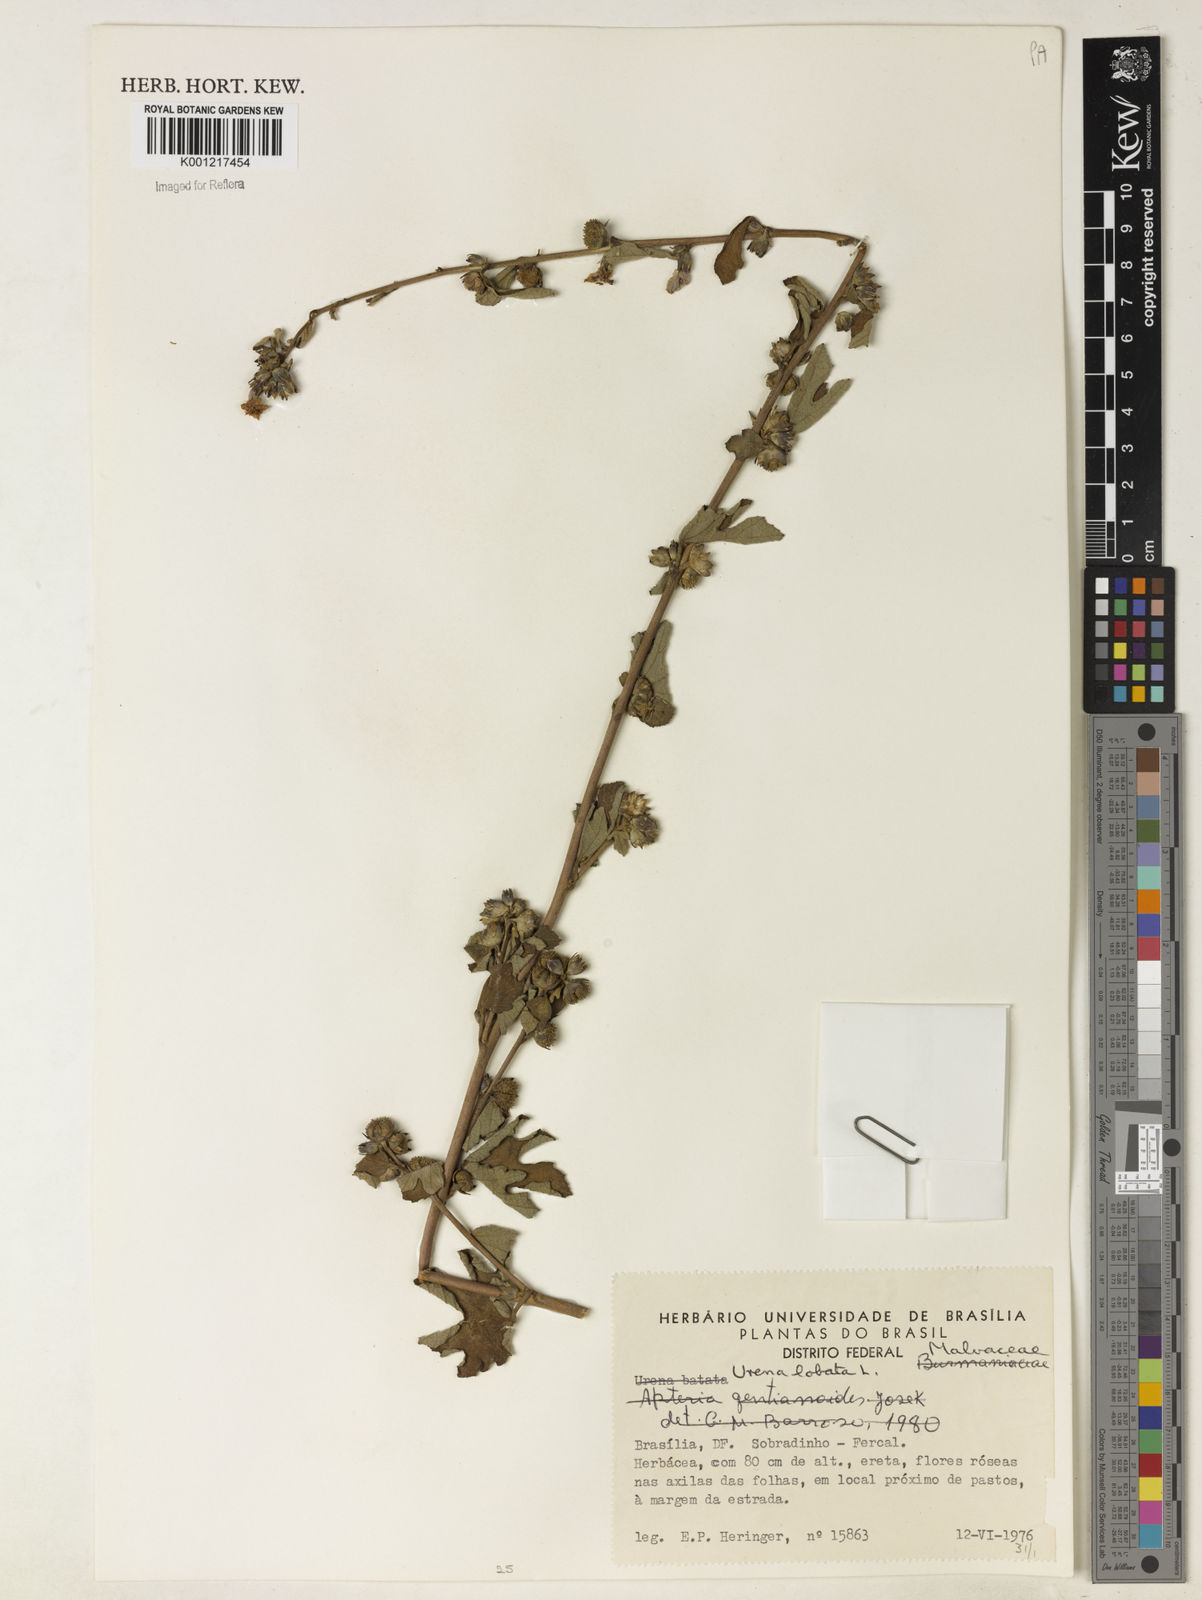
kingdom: Plantae
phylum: Tracheophyta
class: Magnoliopsida
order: Malvales
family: Malvaceae
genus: Urena
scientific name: Urena lobata
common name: Caesarweed
